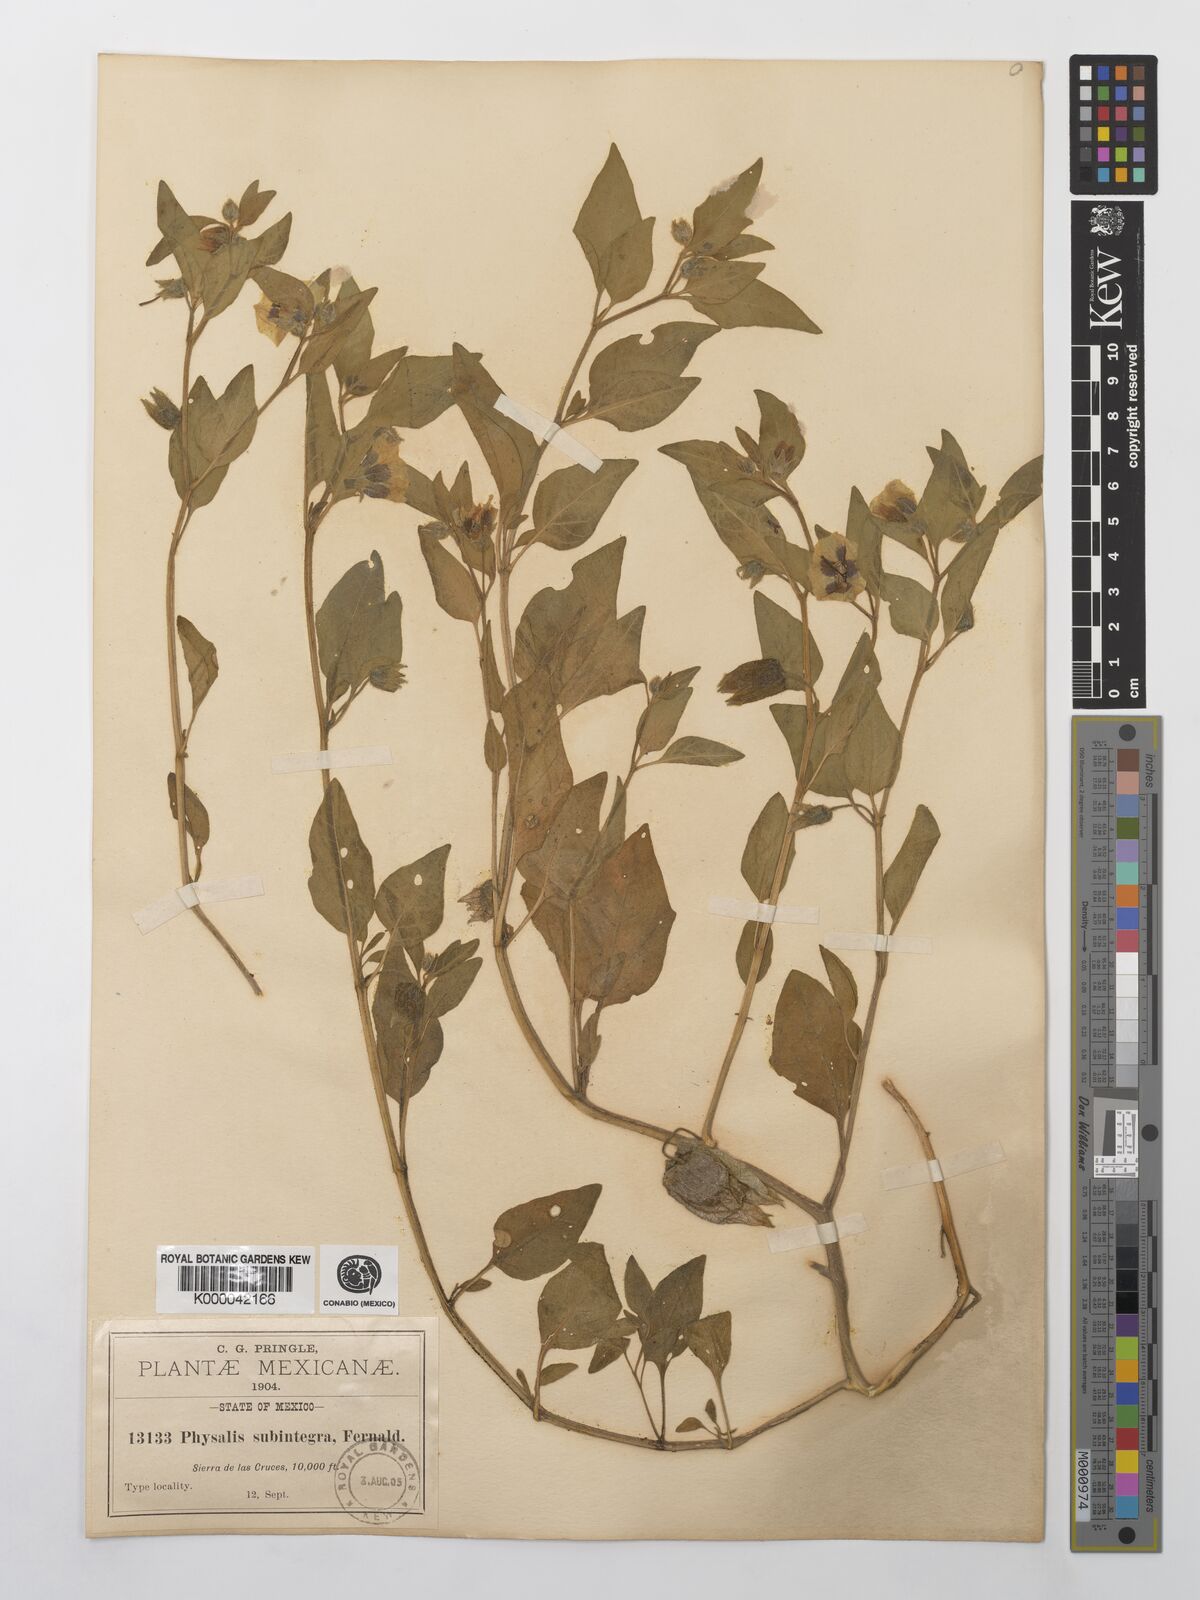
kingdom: Plantae
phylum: Tracheophyta
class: Magnoliopsida
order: Solanales
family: Solanaceae
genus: Physalis
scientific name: Physalis orizabae
